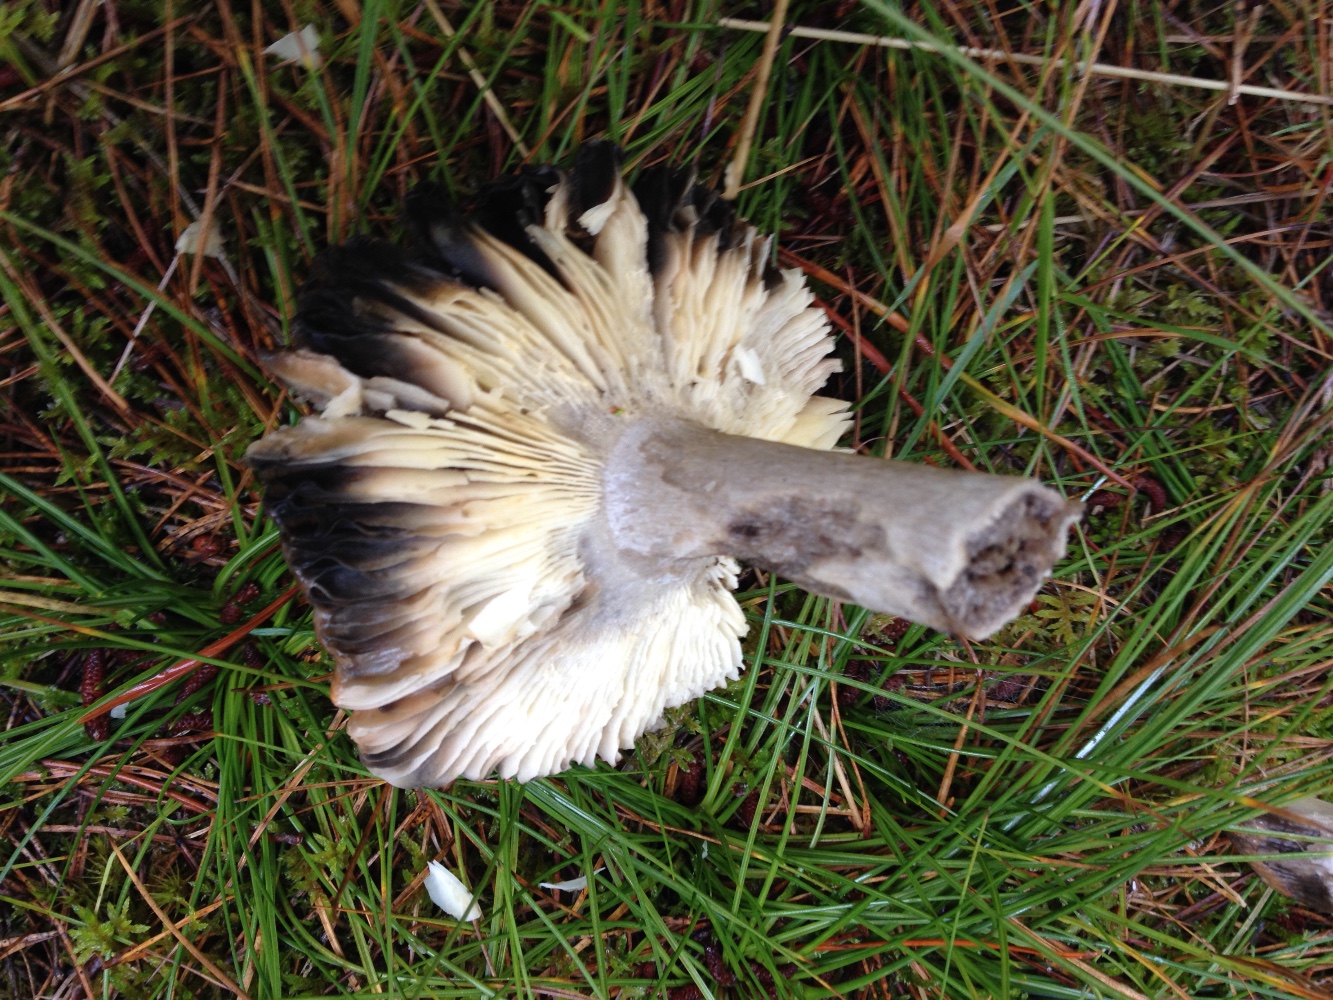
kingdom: Fungi
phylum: Basidiomycota
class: Agaricomycetes
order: Russulales
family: Russulaceae
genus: Russula
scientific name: Russula decolorans
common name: afblegende skørhat
